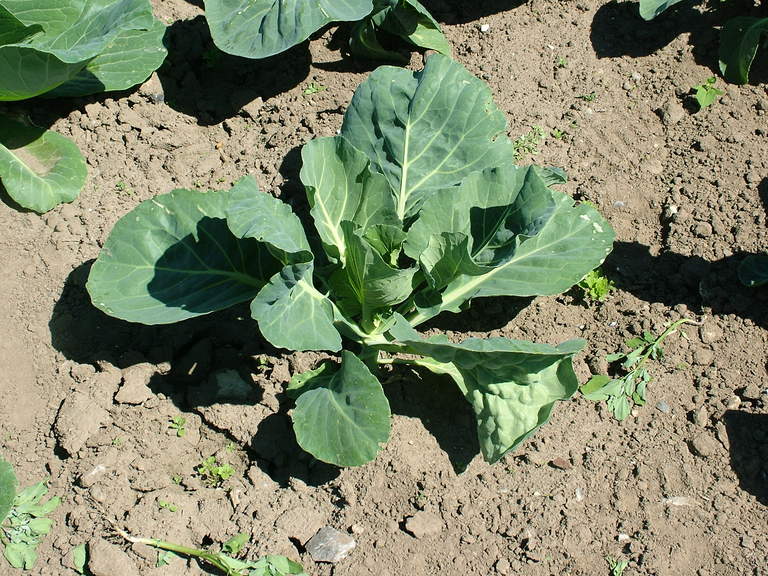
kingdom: Plantae
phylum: Tracheophyta
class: Magnoliopsida
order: Brassicales
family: Brassicaceae
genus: Brassica
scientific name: Brassica oleracea
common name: Cabbage
